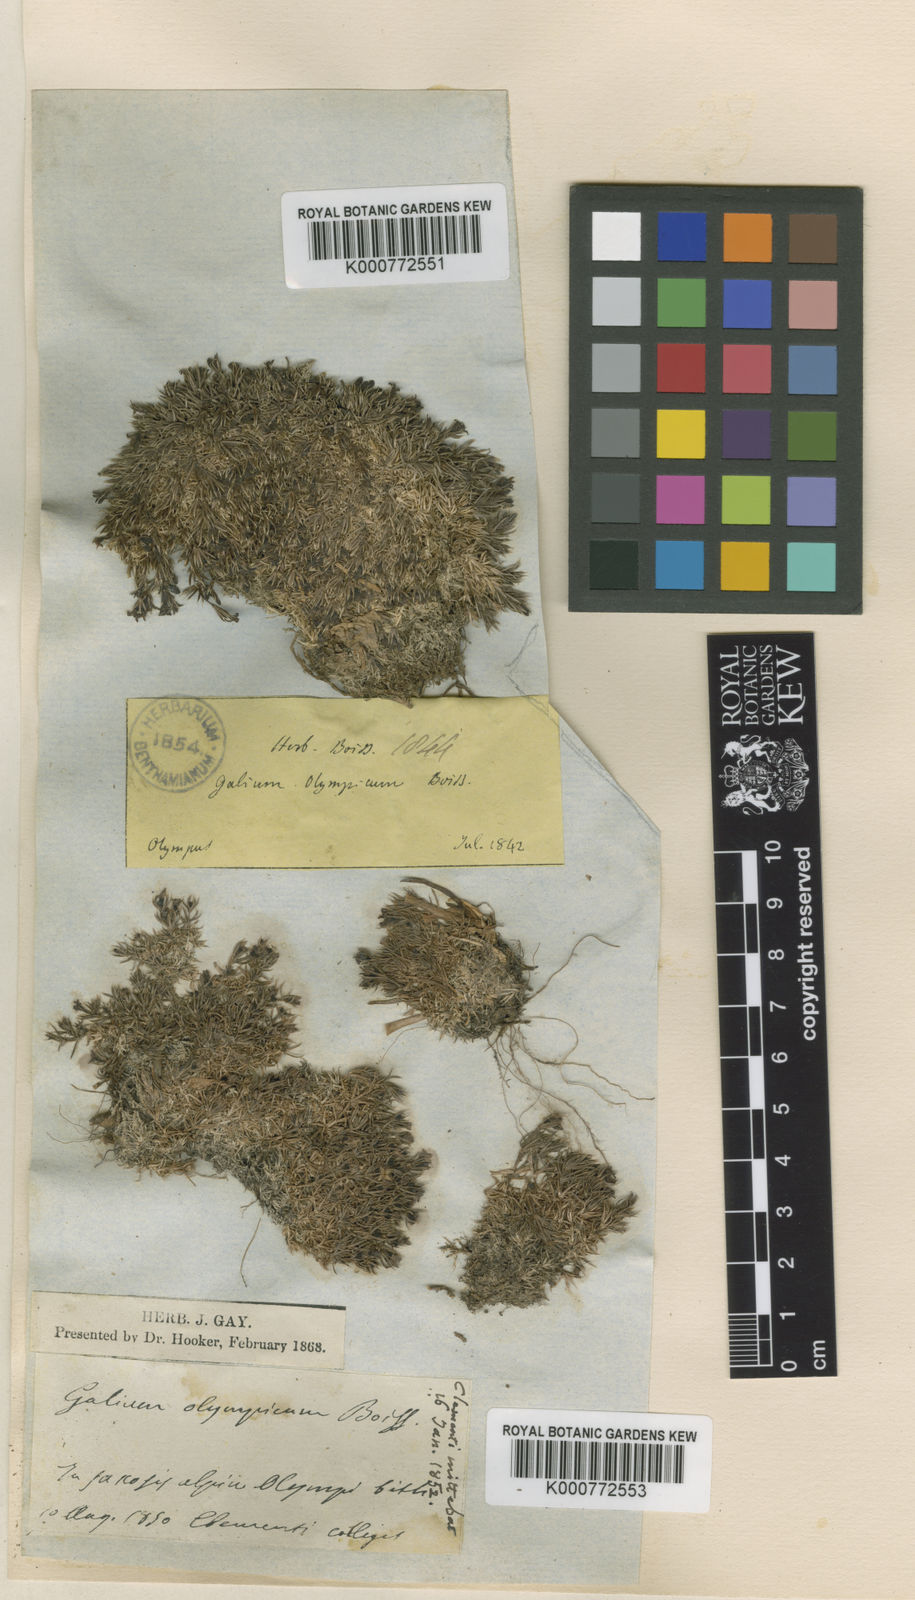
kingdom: Plantae
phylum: Tracheophyta
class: Magnoliopsida
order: Gentianales
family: Rubiaceae
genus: Galium
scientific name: Galium olympicum
